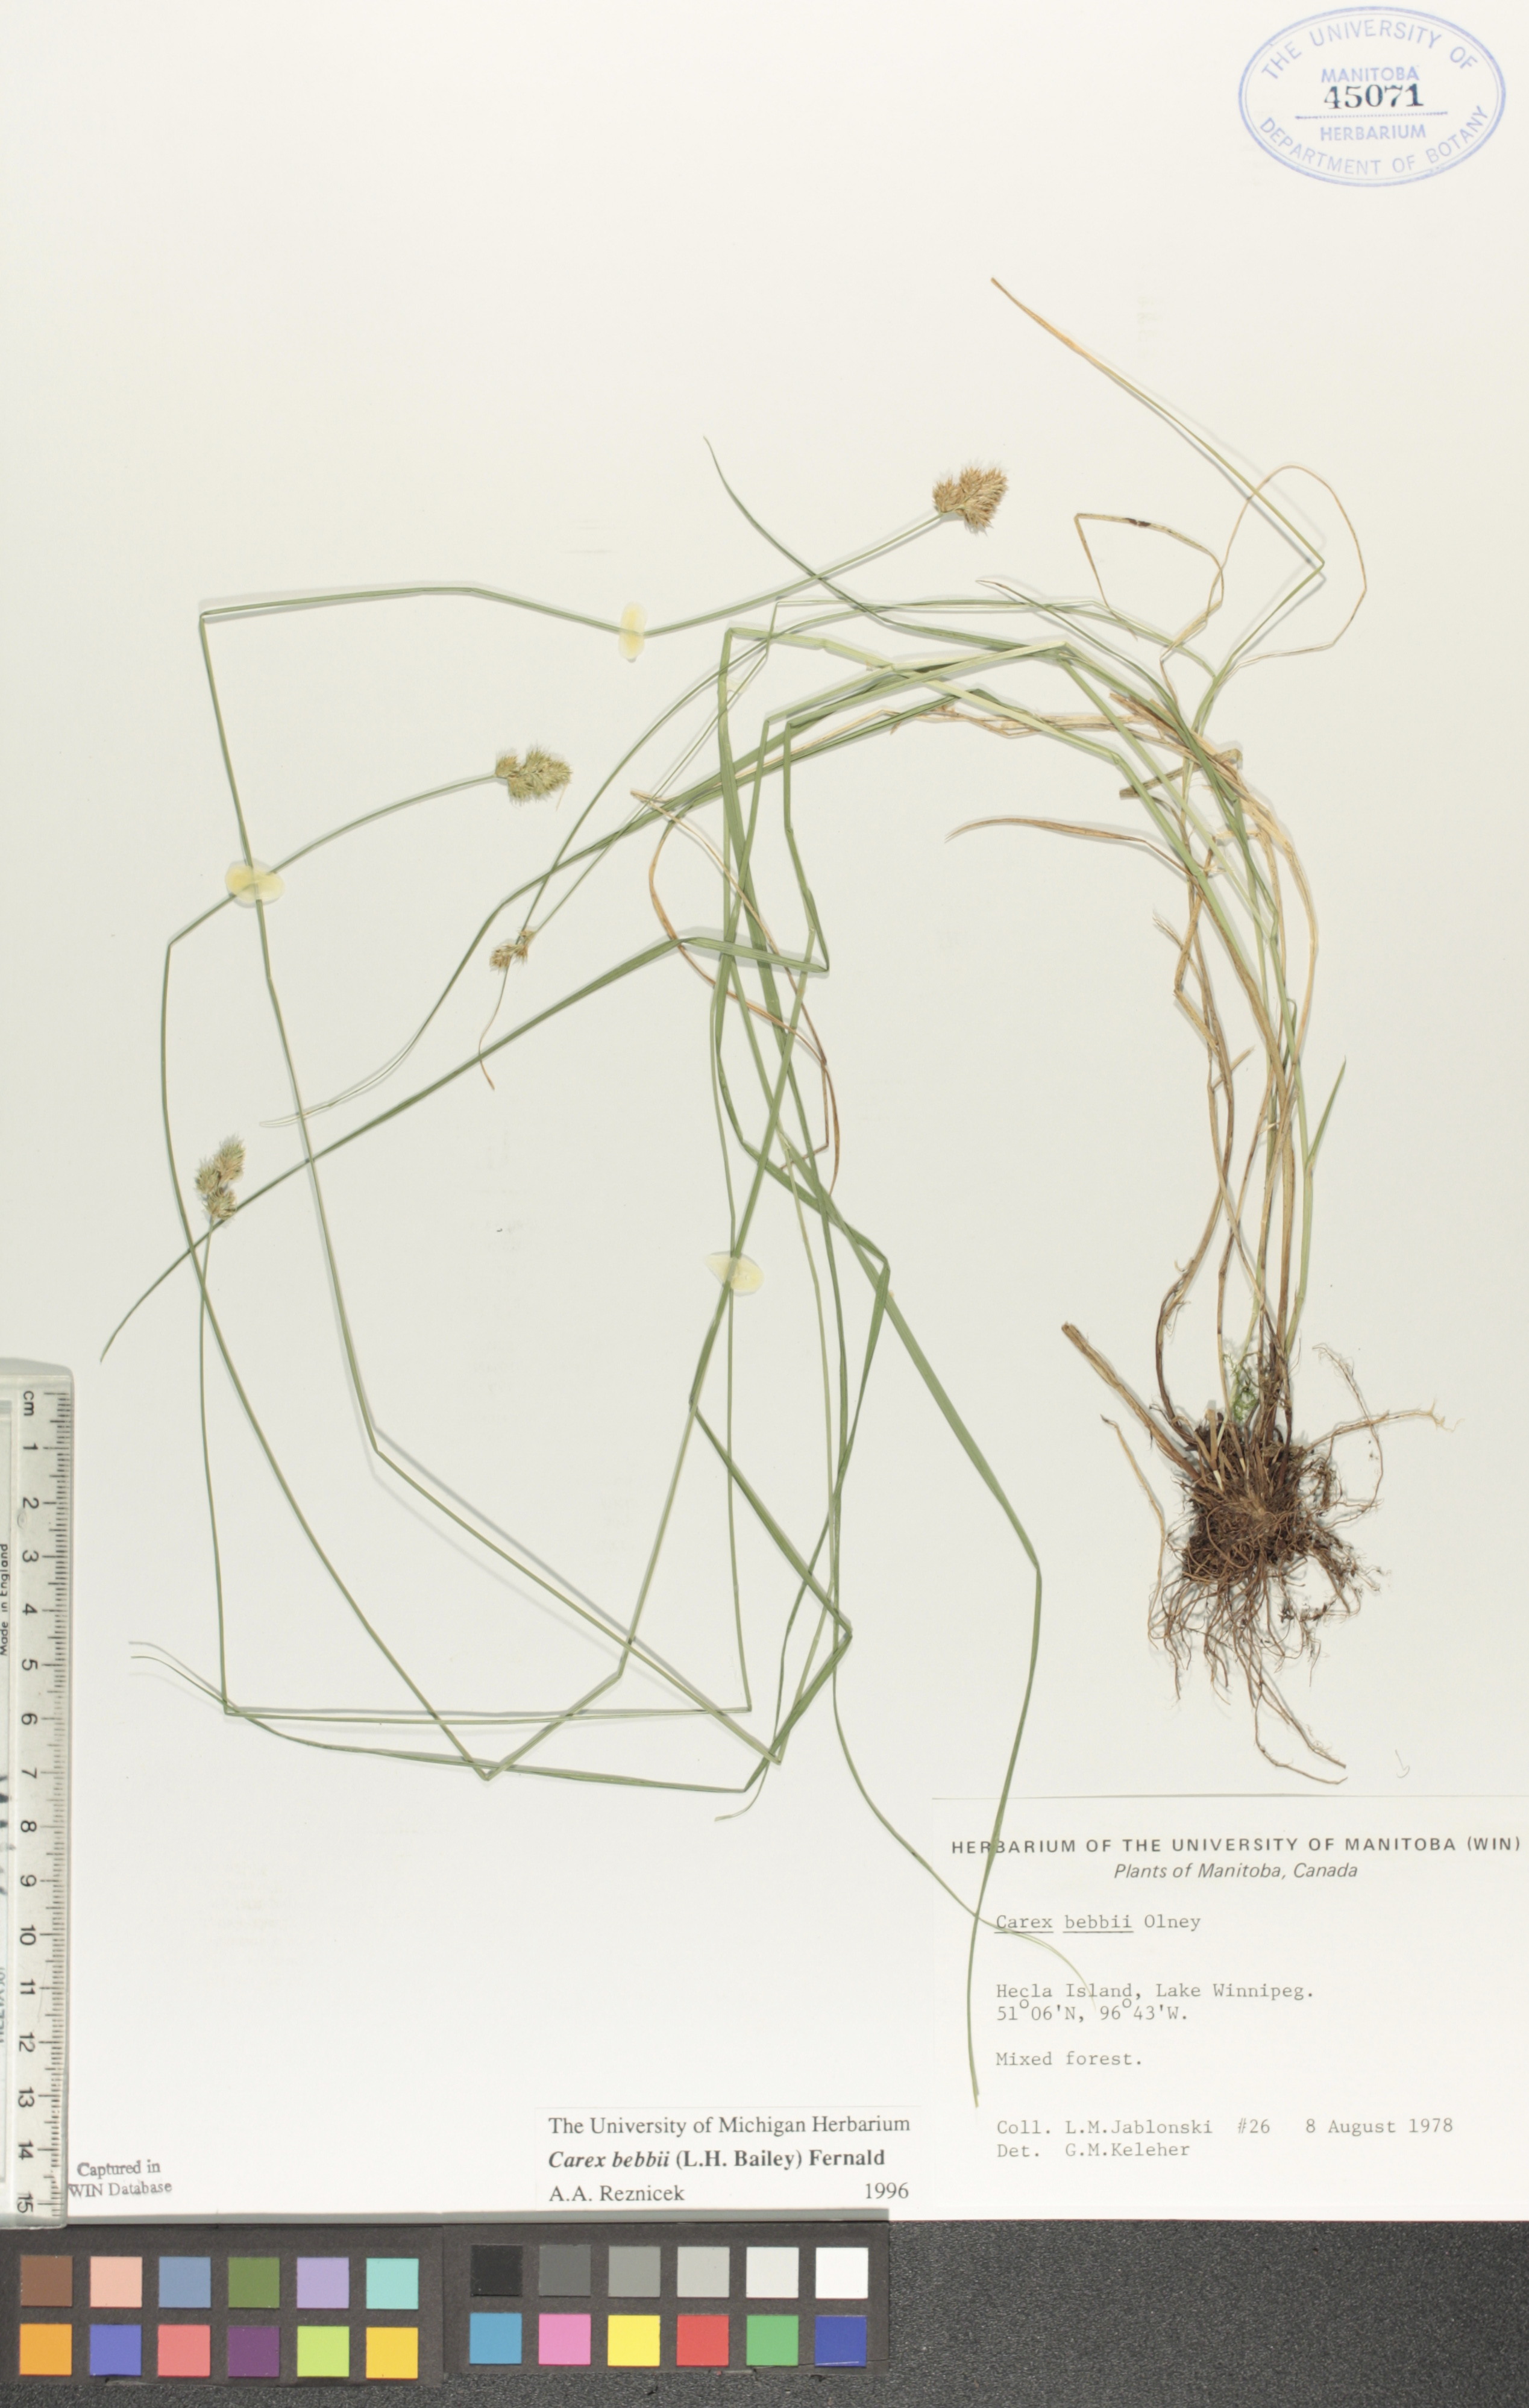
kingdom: Plantae
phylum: Tracheophyta
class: Liliopsida
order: Poales
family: Cyperaceae
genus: Carex
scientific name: Carex bebbii
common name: Bebb's sedge
